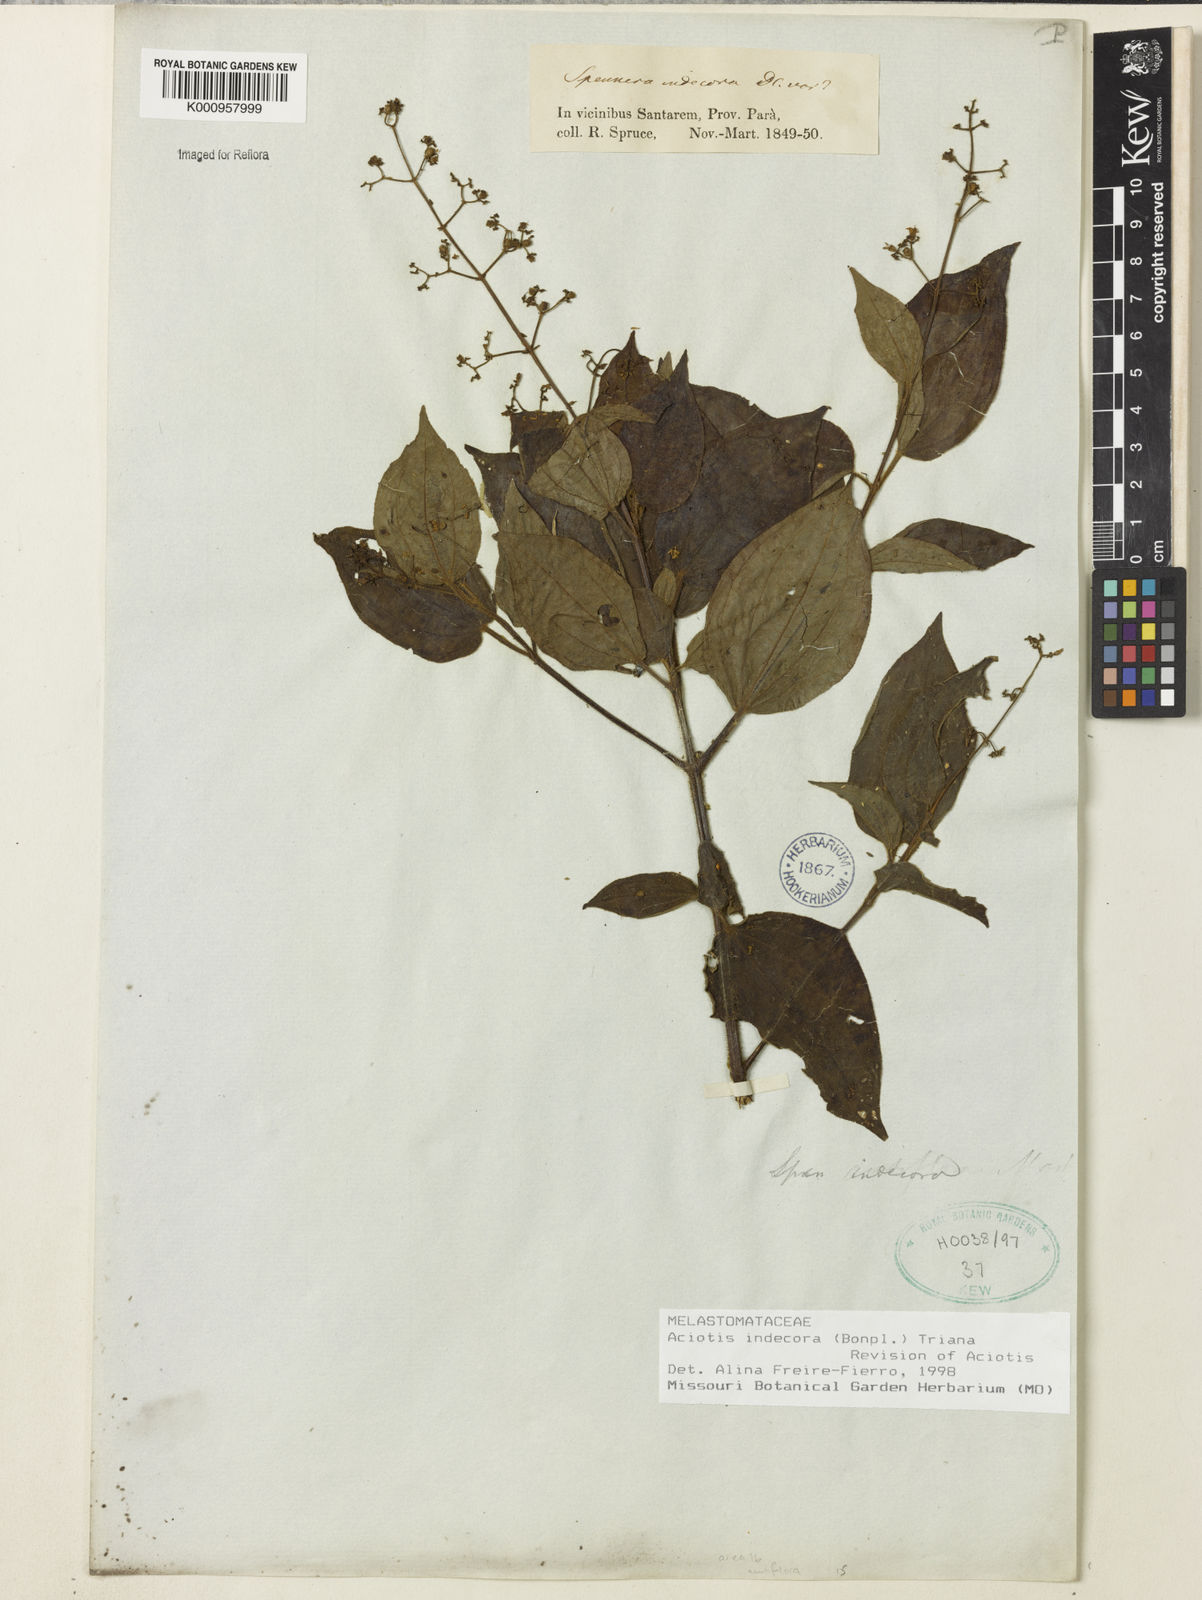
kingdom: Plantae
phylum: Tracheophyta
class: Magnoliopsida
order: Myrtales
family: Melastomataceae
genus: Aciotis
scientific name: Aciotis indecora
